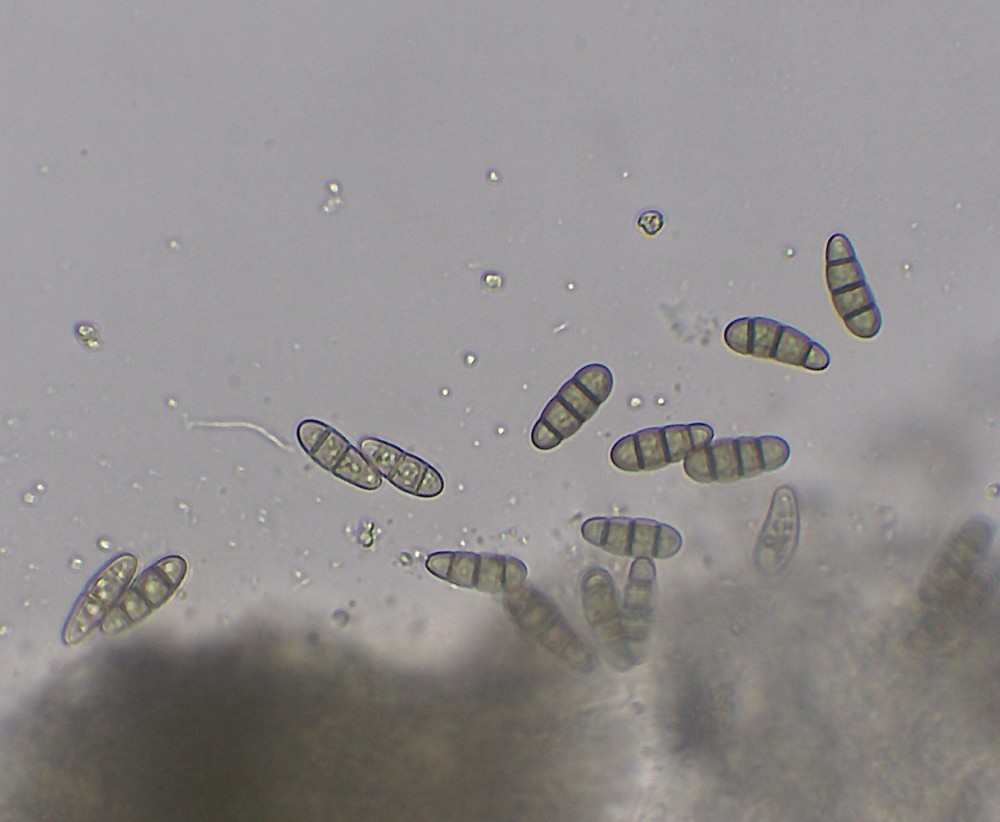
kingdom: Fungi
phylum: Ascomycota
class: Dothideomycetes
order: Hysteriales
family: Hysteriaceae
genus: Hysterium
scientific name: Hysterium acuminatum
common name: almindelig kulmund
